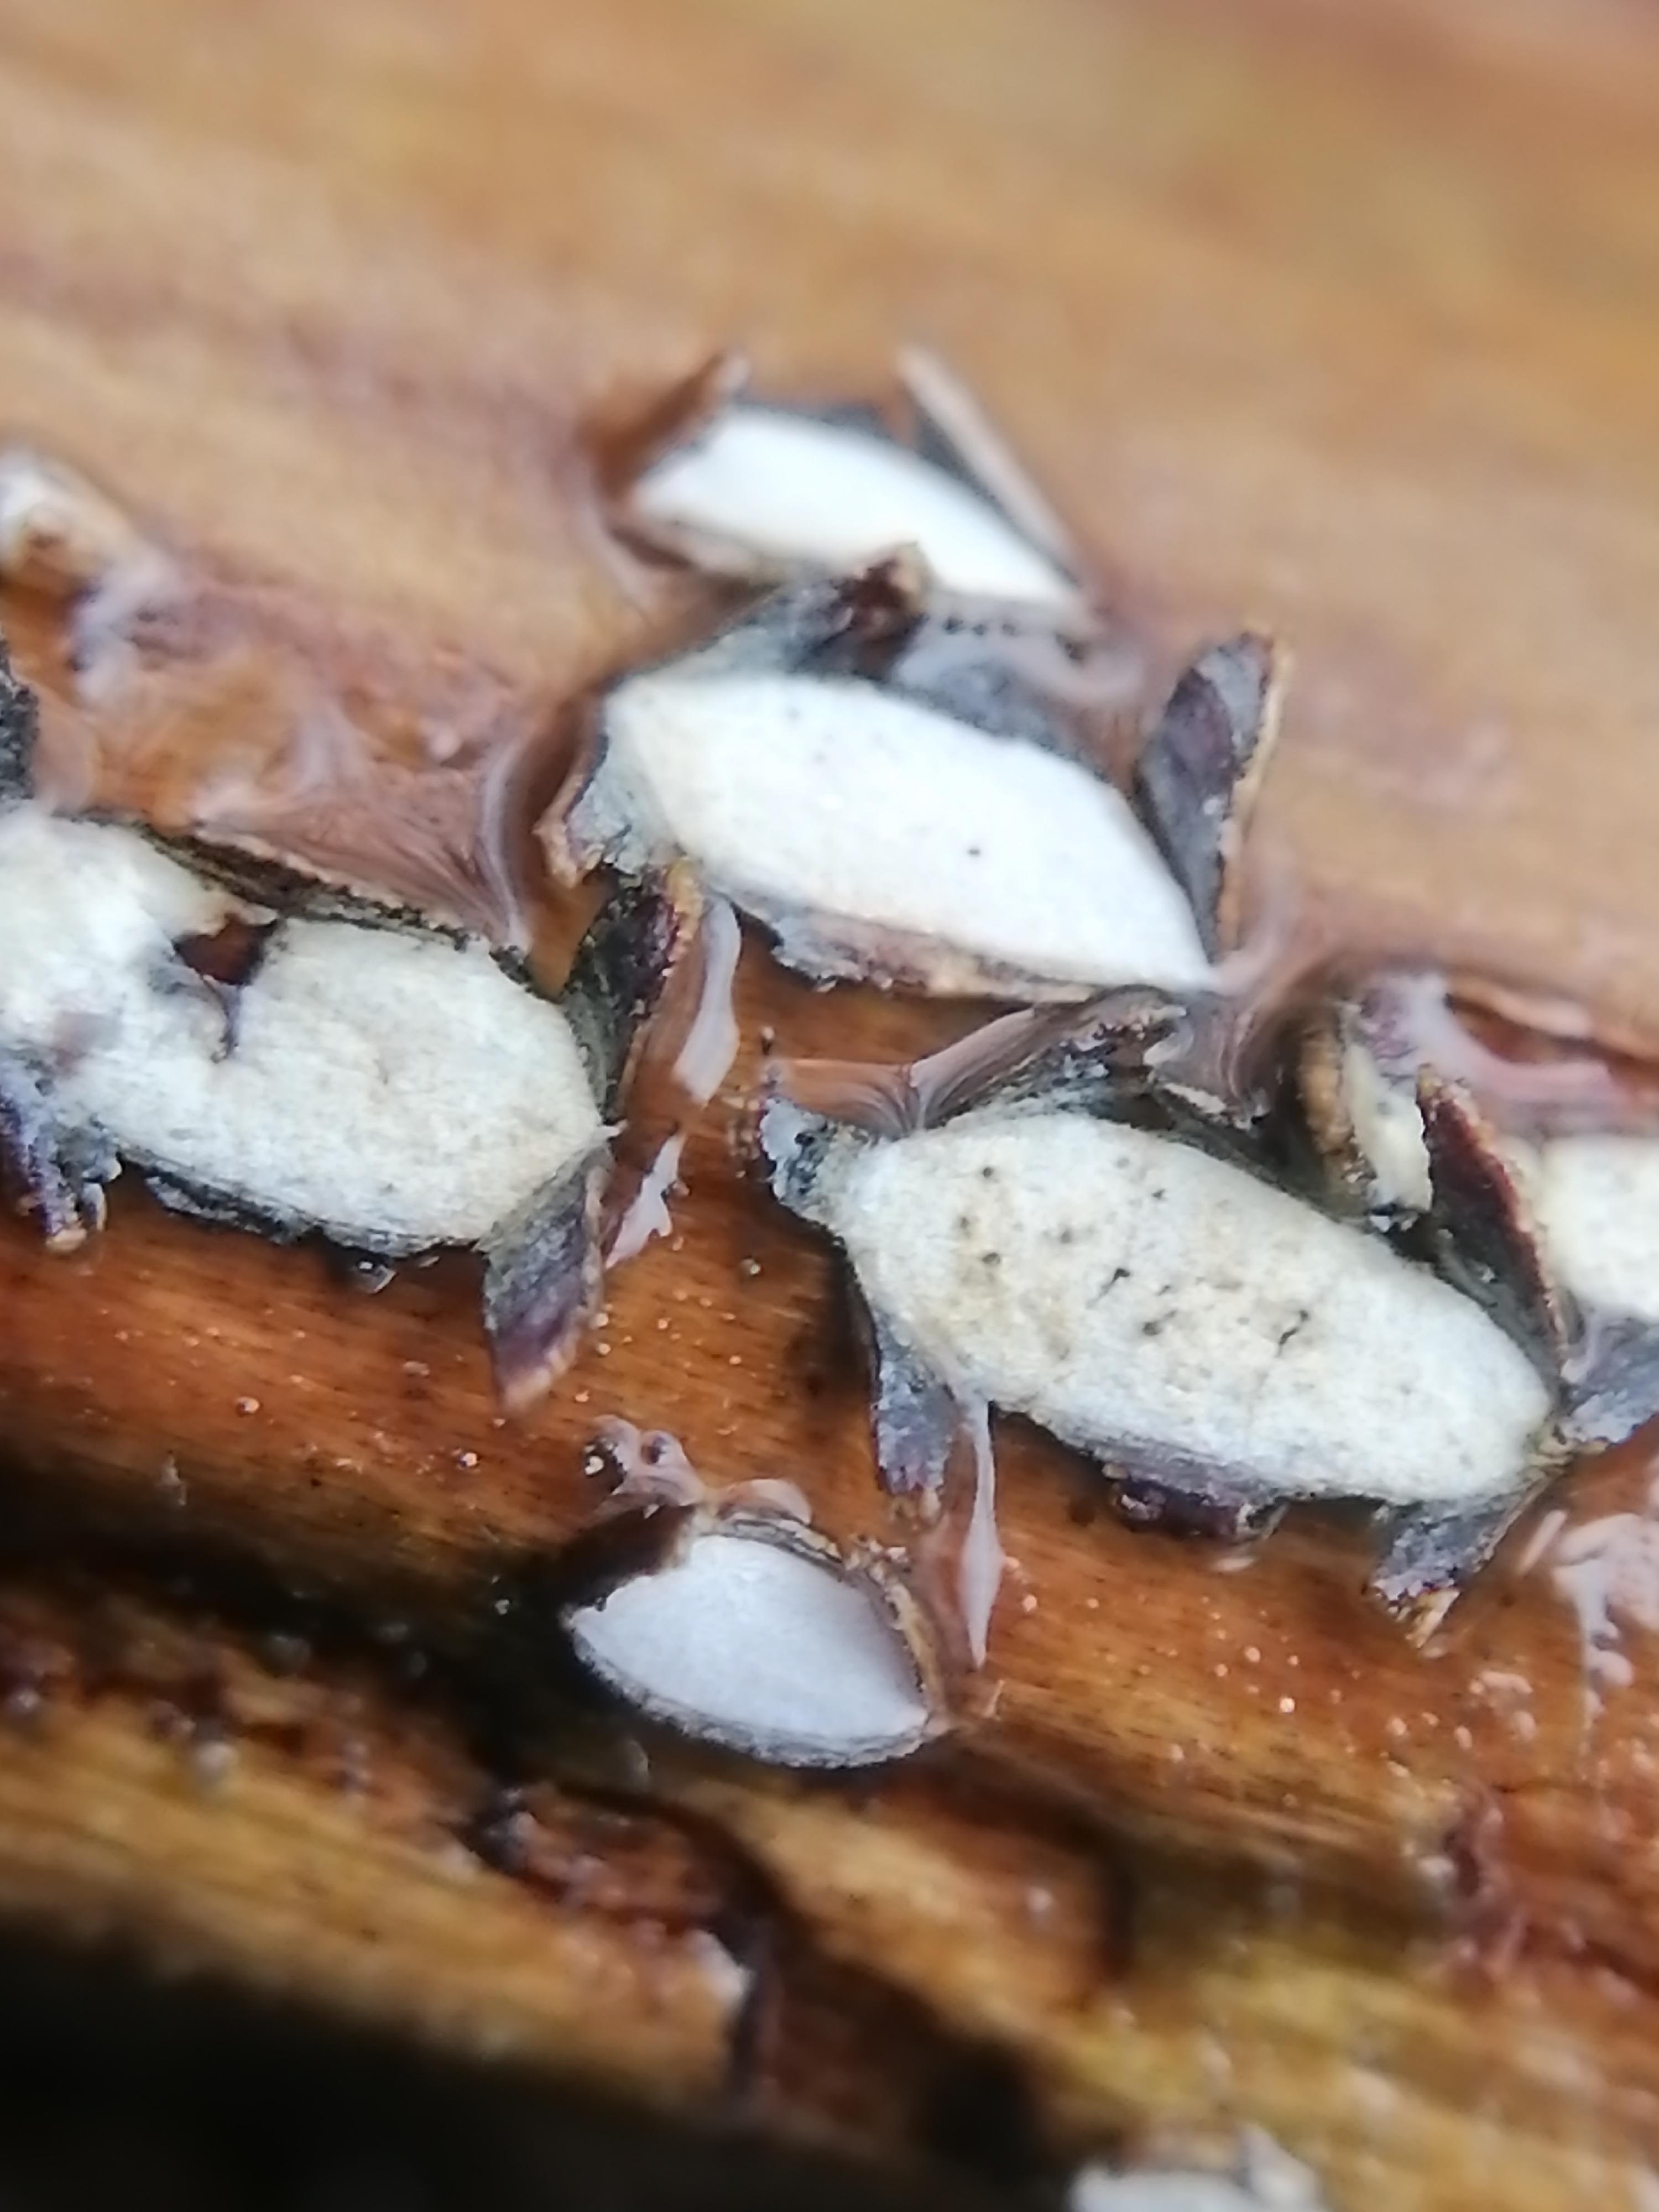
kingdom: Fungi
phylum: Ascomycota
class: Leotiomycetes
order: Chaetomellales
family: Marthamycetaceae
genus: Propolis
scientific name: Propolis farinosa
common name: almindelig vedsprængerskive
